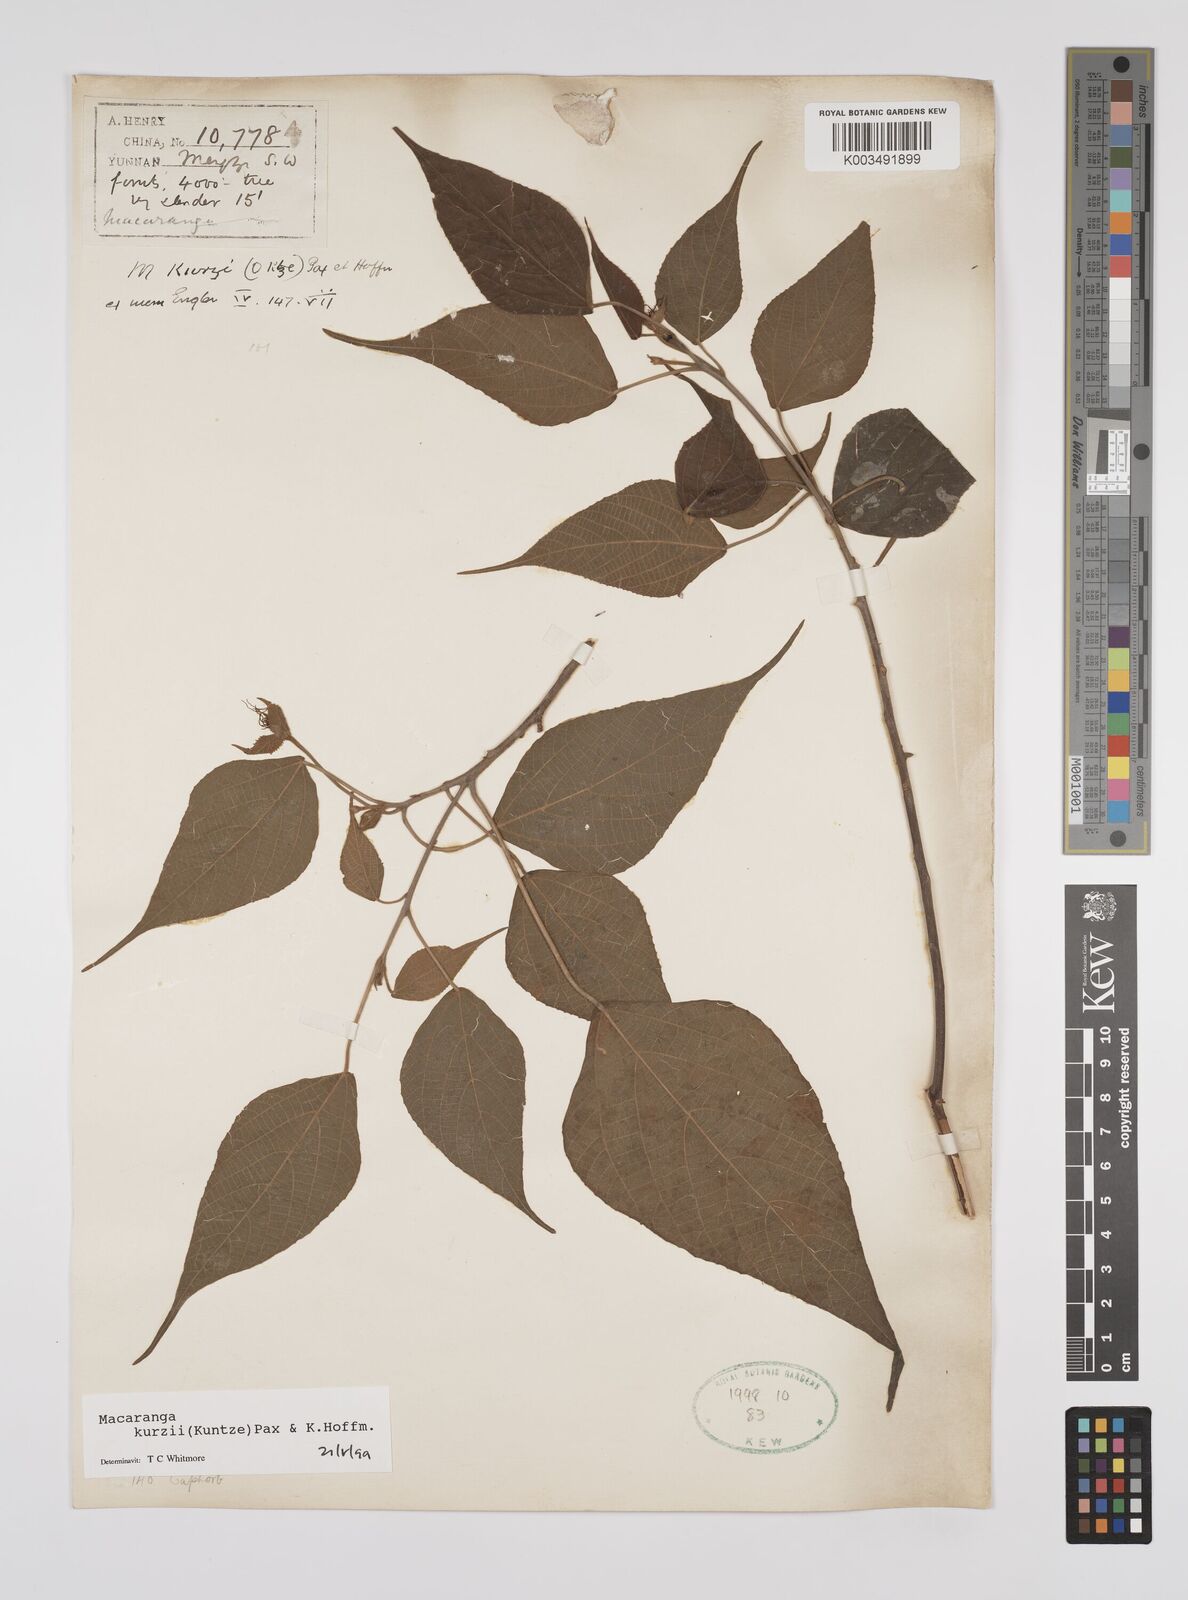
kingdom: Plantae
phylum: Tracheophyta
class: Magnoliopsida
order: Malpighiales
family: Euphorbiaceae
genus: Macaranga
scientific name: Macaranga kurzii
